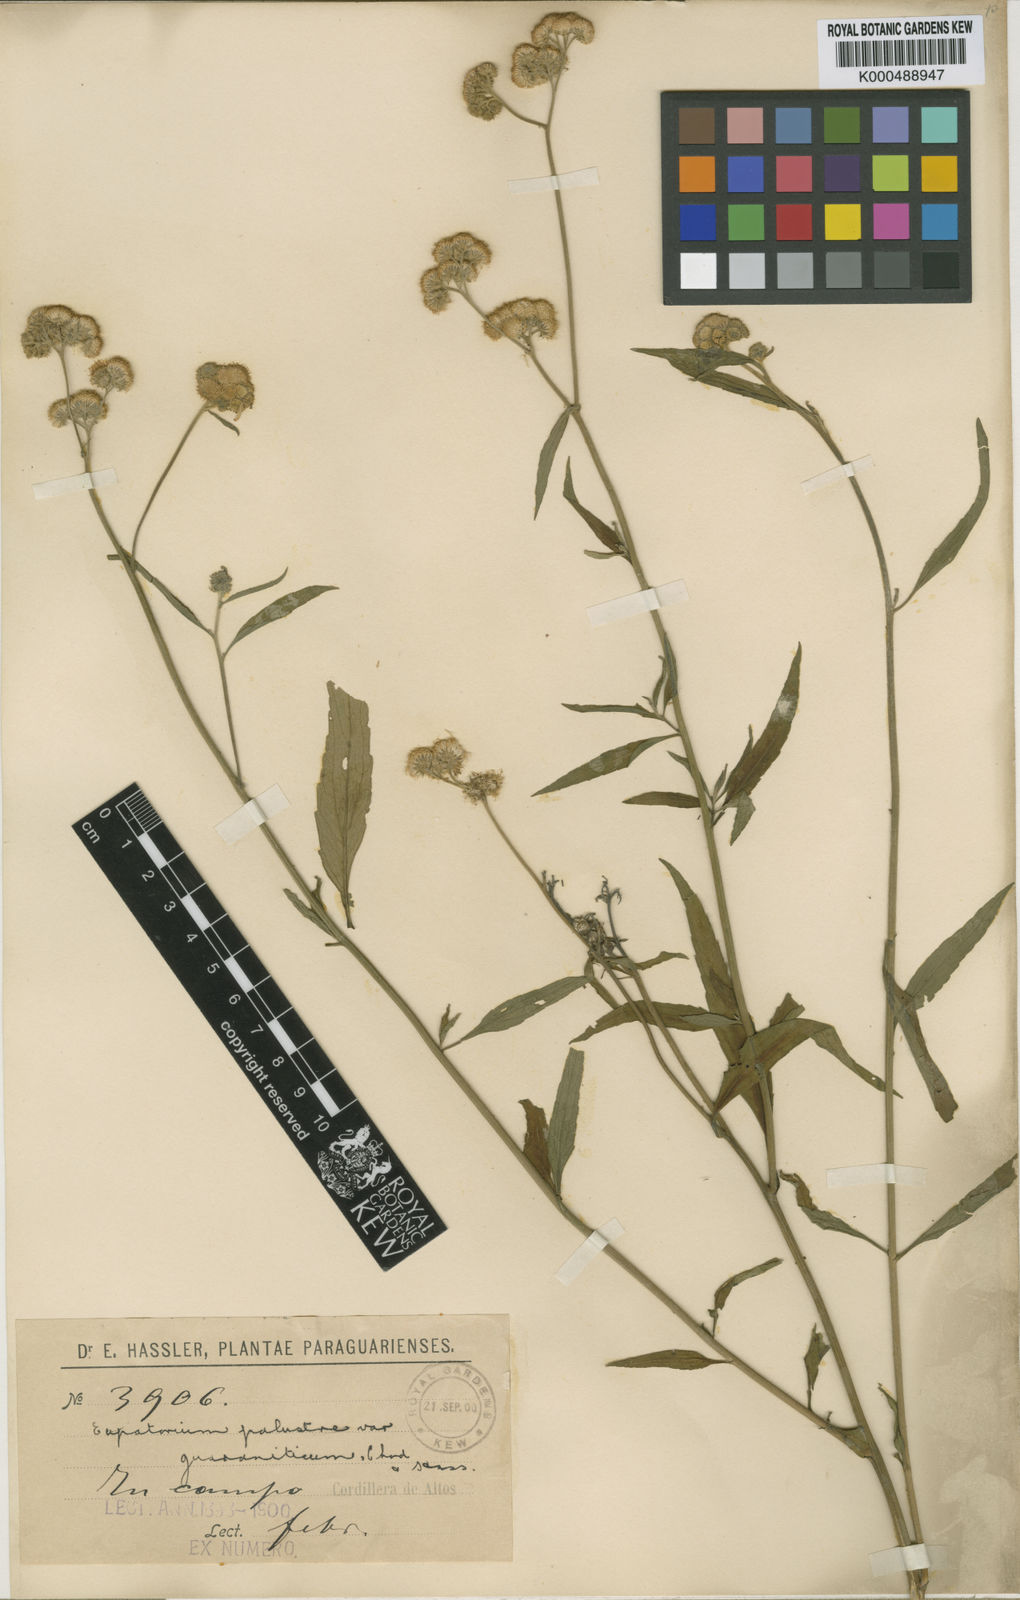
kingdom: Plantae
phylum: Tracheophyta
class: Magnoliopsida
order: Asterales
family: Asteraceae
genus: Barrosoa
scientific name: Barrosoa candolleana
